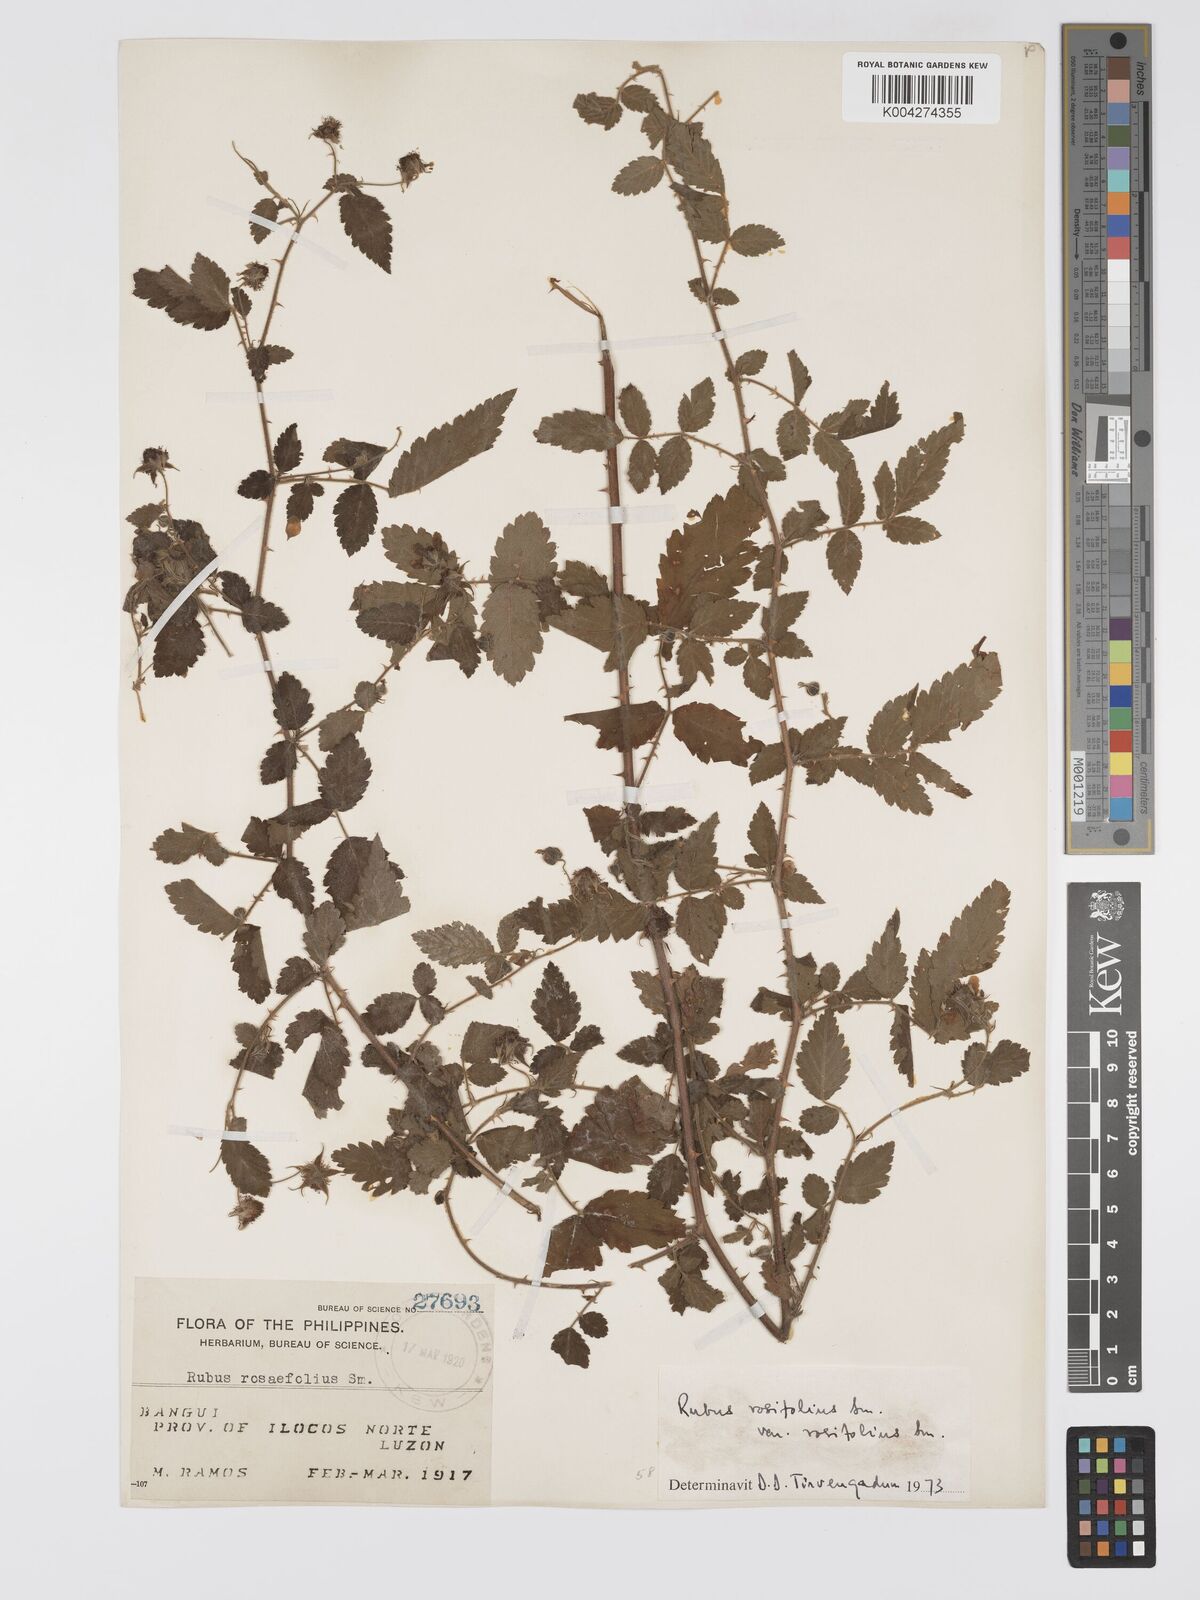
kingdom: Plantae
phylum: Tracheophyta
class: Magnoliopsida
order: Rosales
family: Rosaceae
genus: Rubus
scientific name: Rubus
